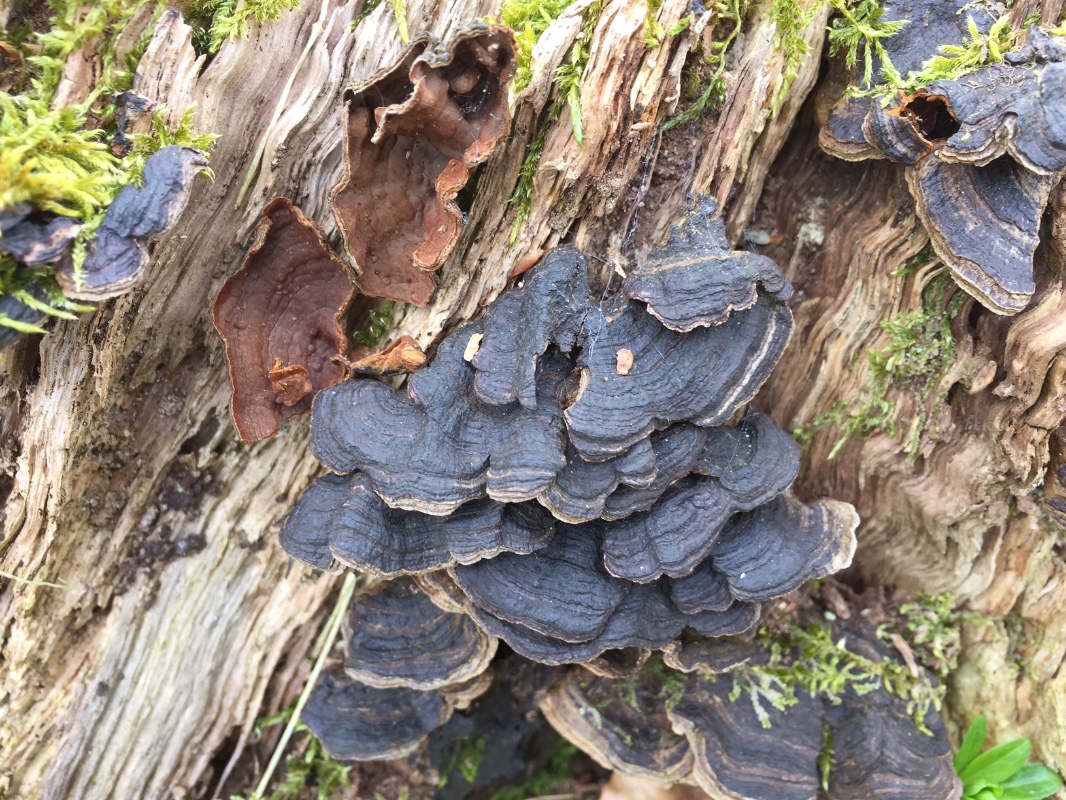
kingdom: Fungi
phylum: Basidiomycota
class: Agaricomycetes
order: Hymenochaetales
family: Hymenochaetaceae
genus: Hymenochaete
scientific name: Hymenochaete rubiginosa
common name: stiv ruslædersvamp
